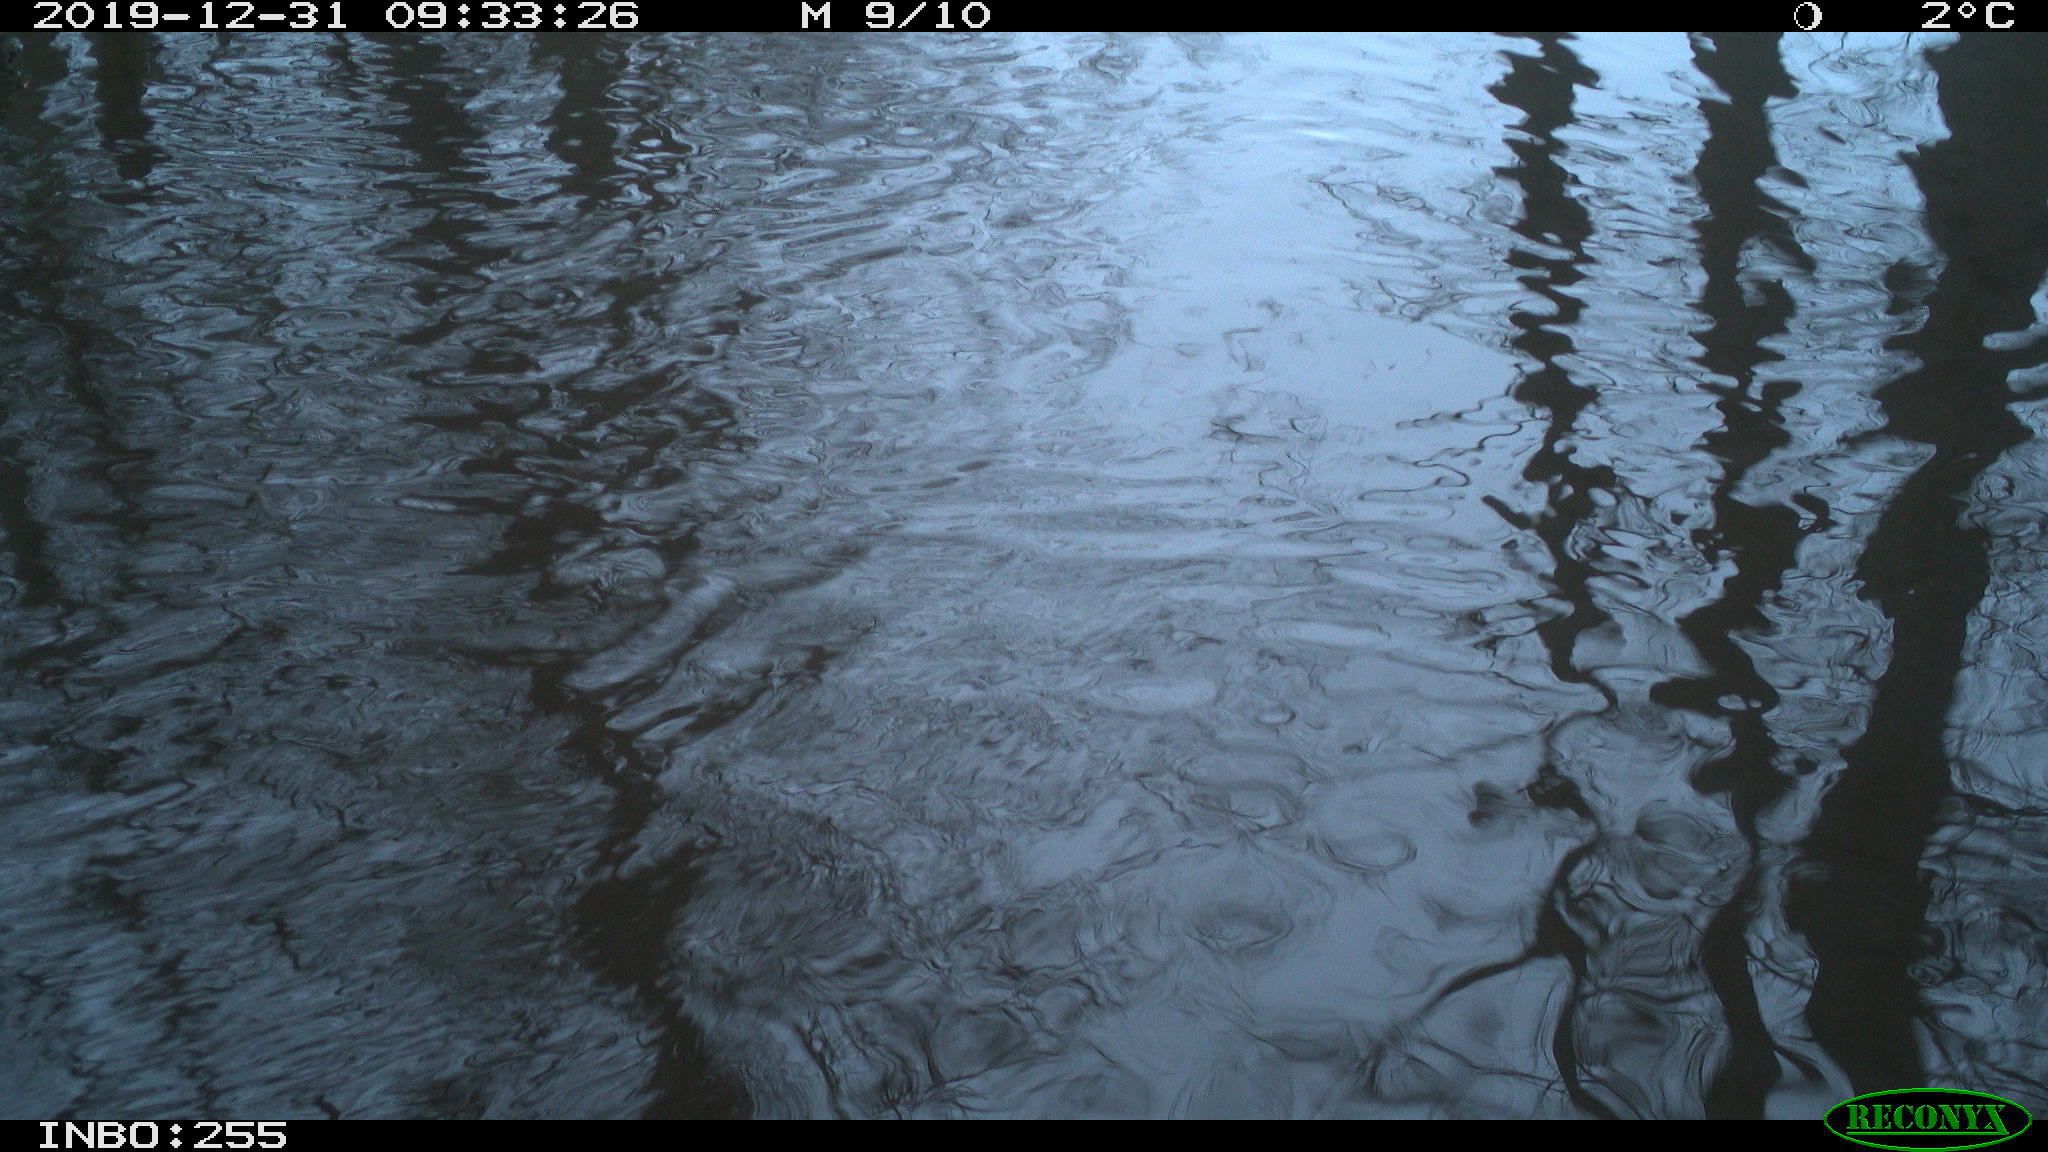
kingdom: Animalia
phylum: Chordata
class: Aves
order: Gruiformes
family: Rallidae
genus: Gallinula
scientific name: Gallinula chloropus
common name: Common moorhen
